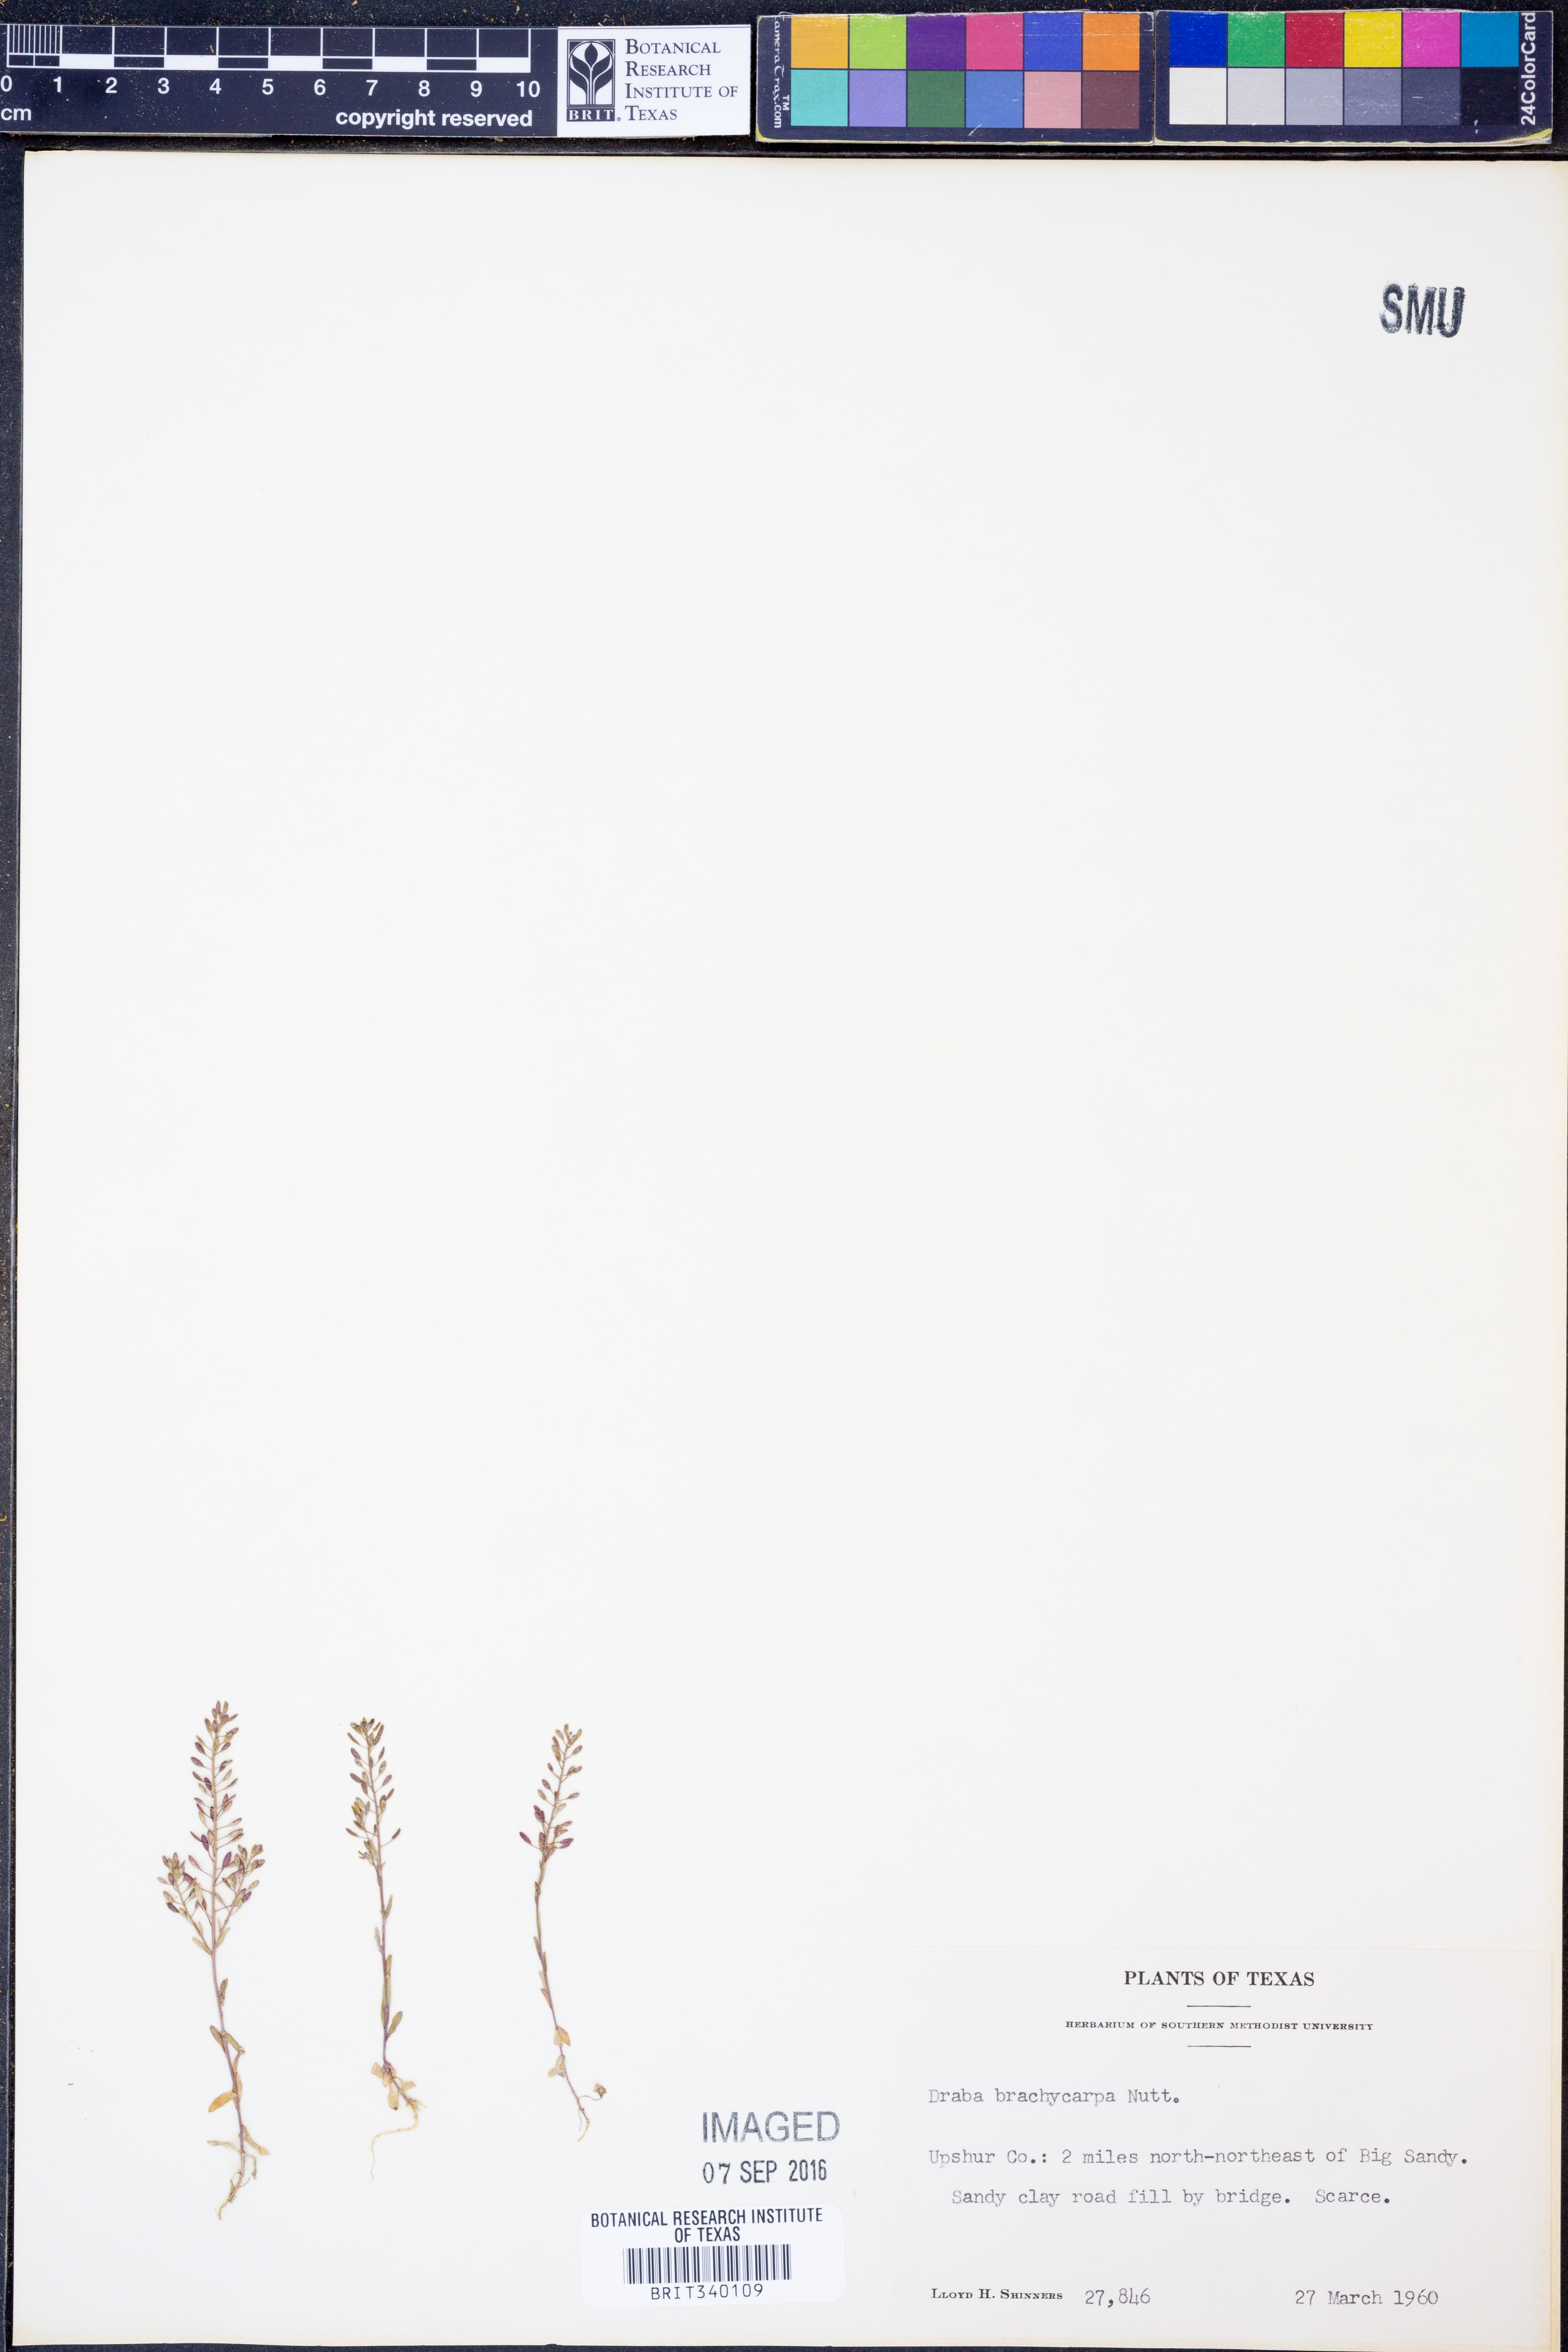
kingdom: Plantae
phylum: Tracheophyta
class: Magnoliopsida
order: Brassicales
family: Brassicaceae
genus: Abdra
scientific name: Abdra brachycarpa
